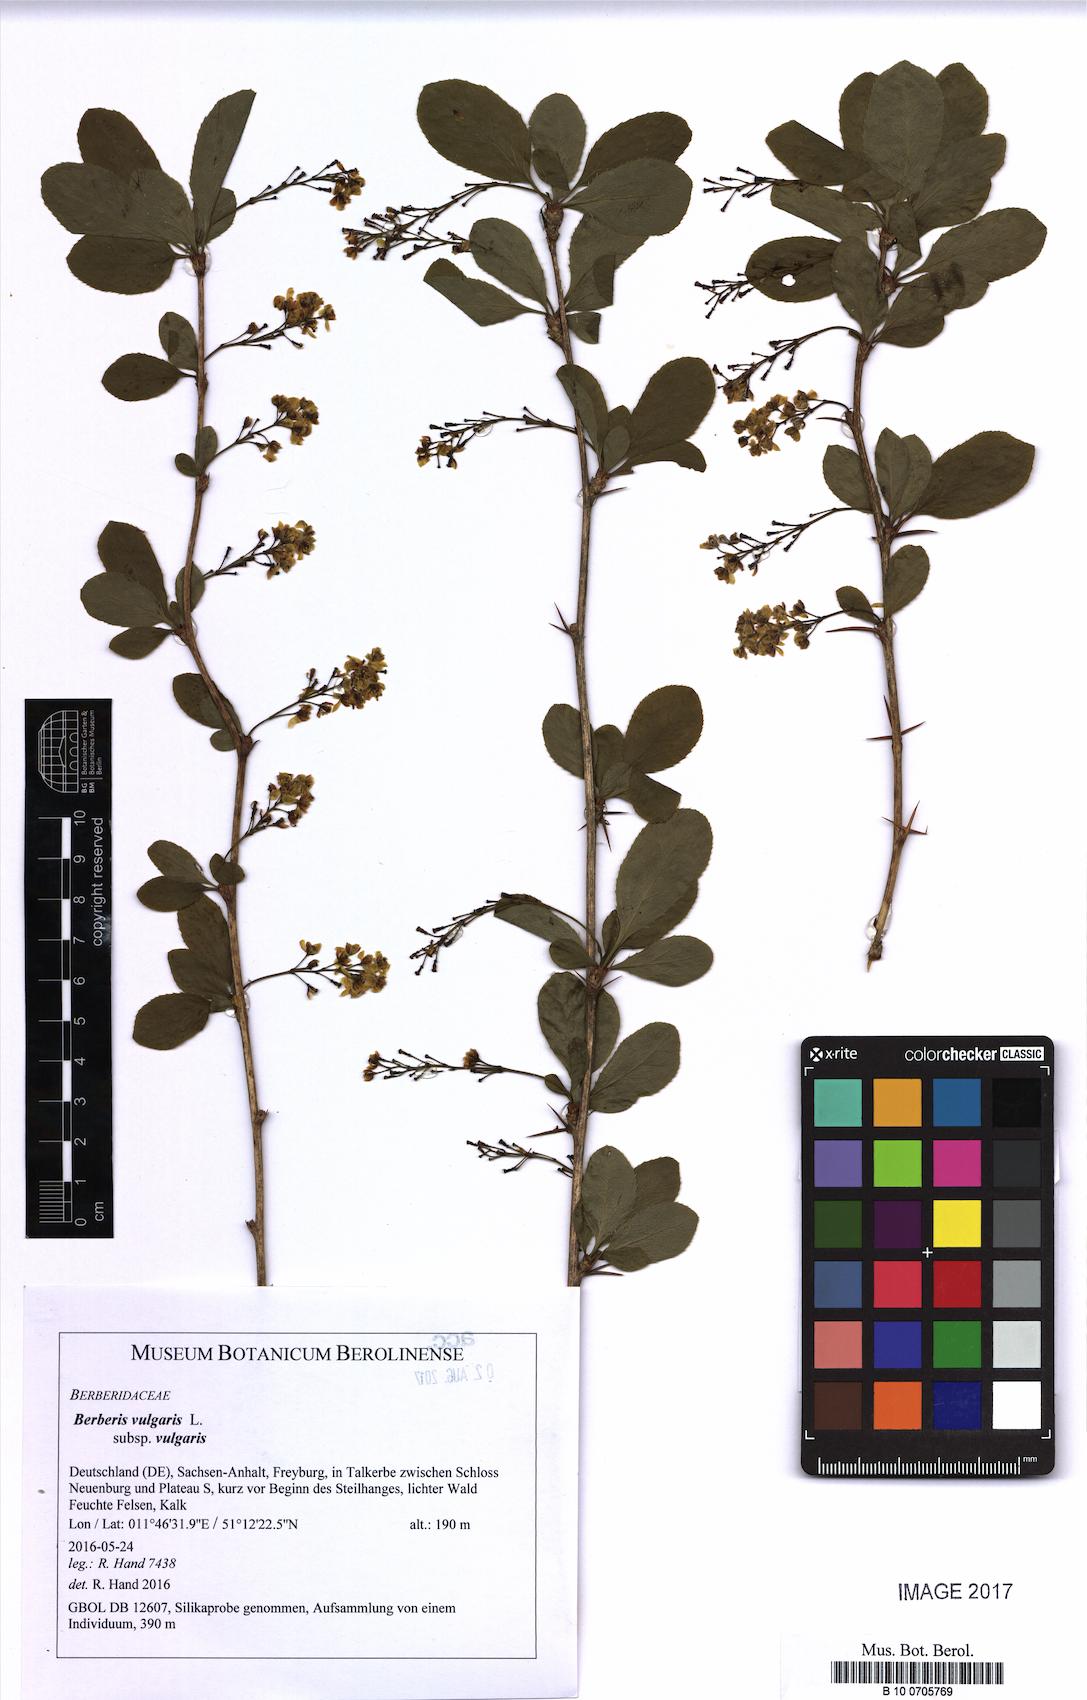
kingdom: Plantae
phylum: Tracheophyta
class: Magnoliopsida
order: Ranunculales
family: Berberidaceae
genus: Berberis
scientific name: Berberis vulgaris
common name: Barberry
